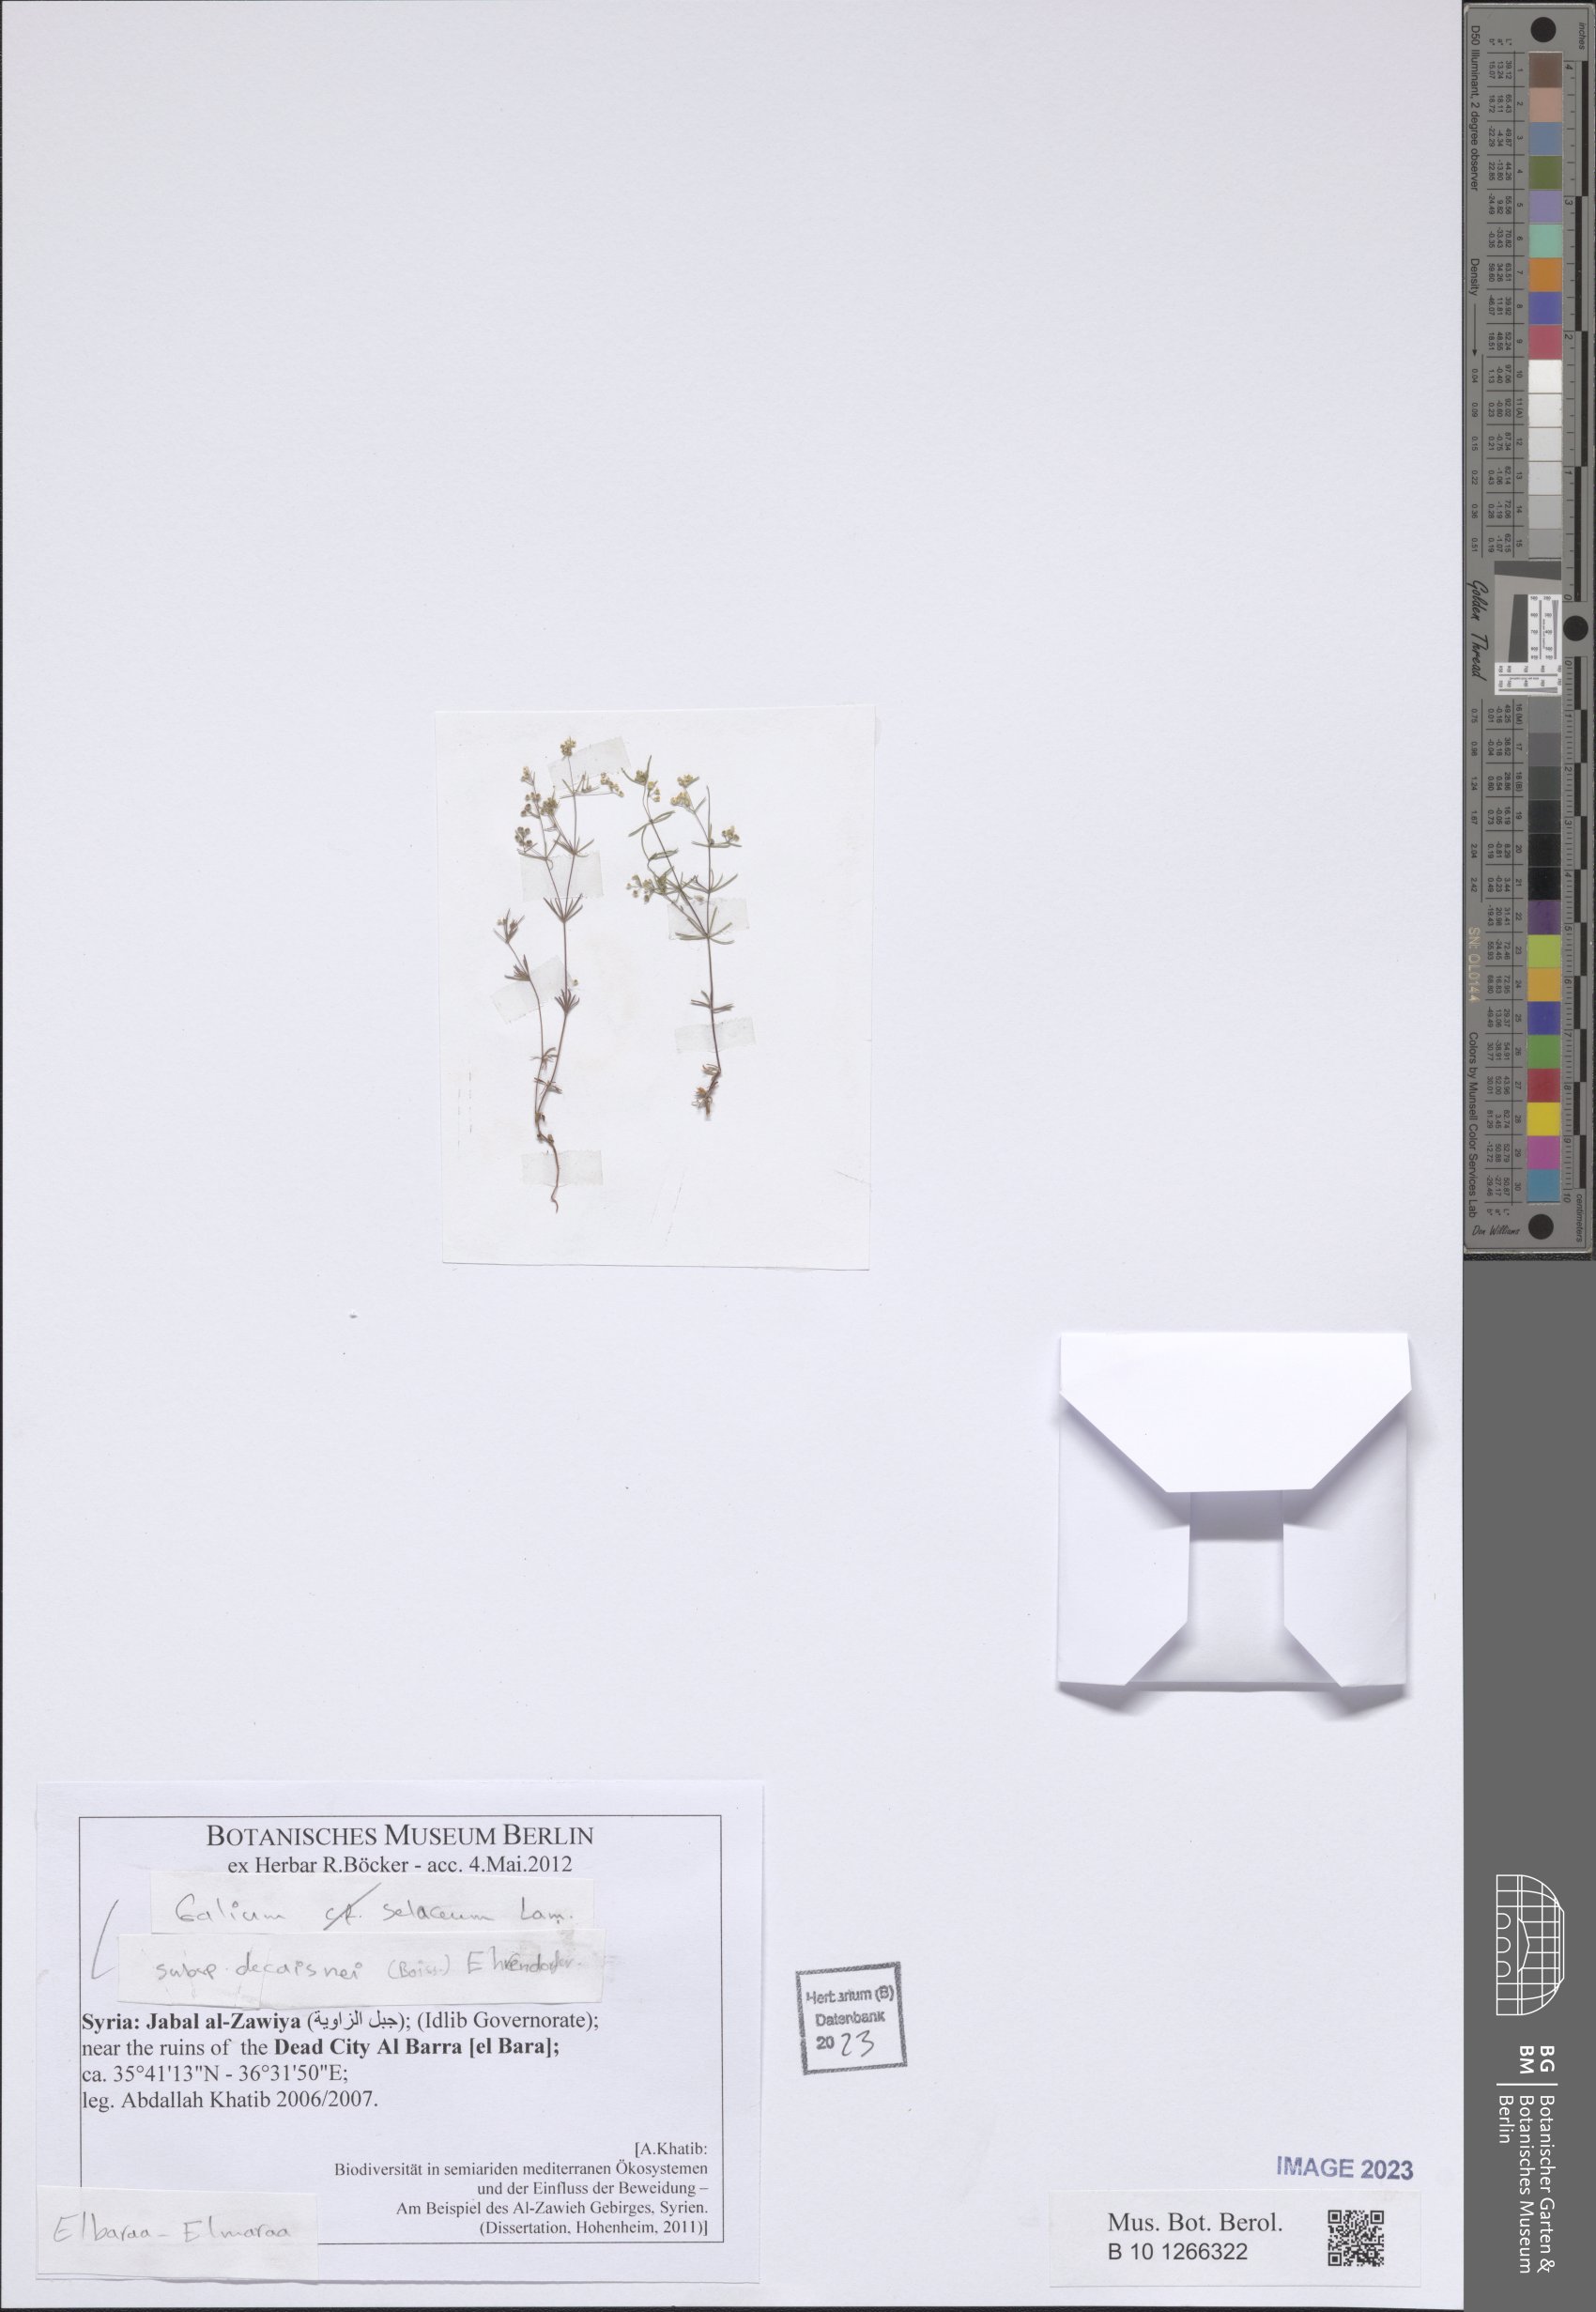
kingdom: Plantae
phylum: Tracheophyta
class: Magnoliopsida
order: Gentianales
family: Rubiaceae
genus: Galium
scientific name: Galium setaceum
